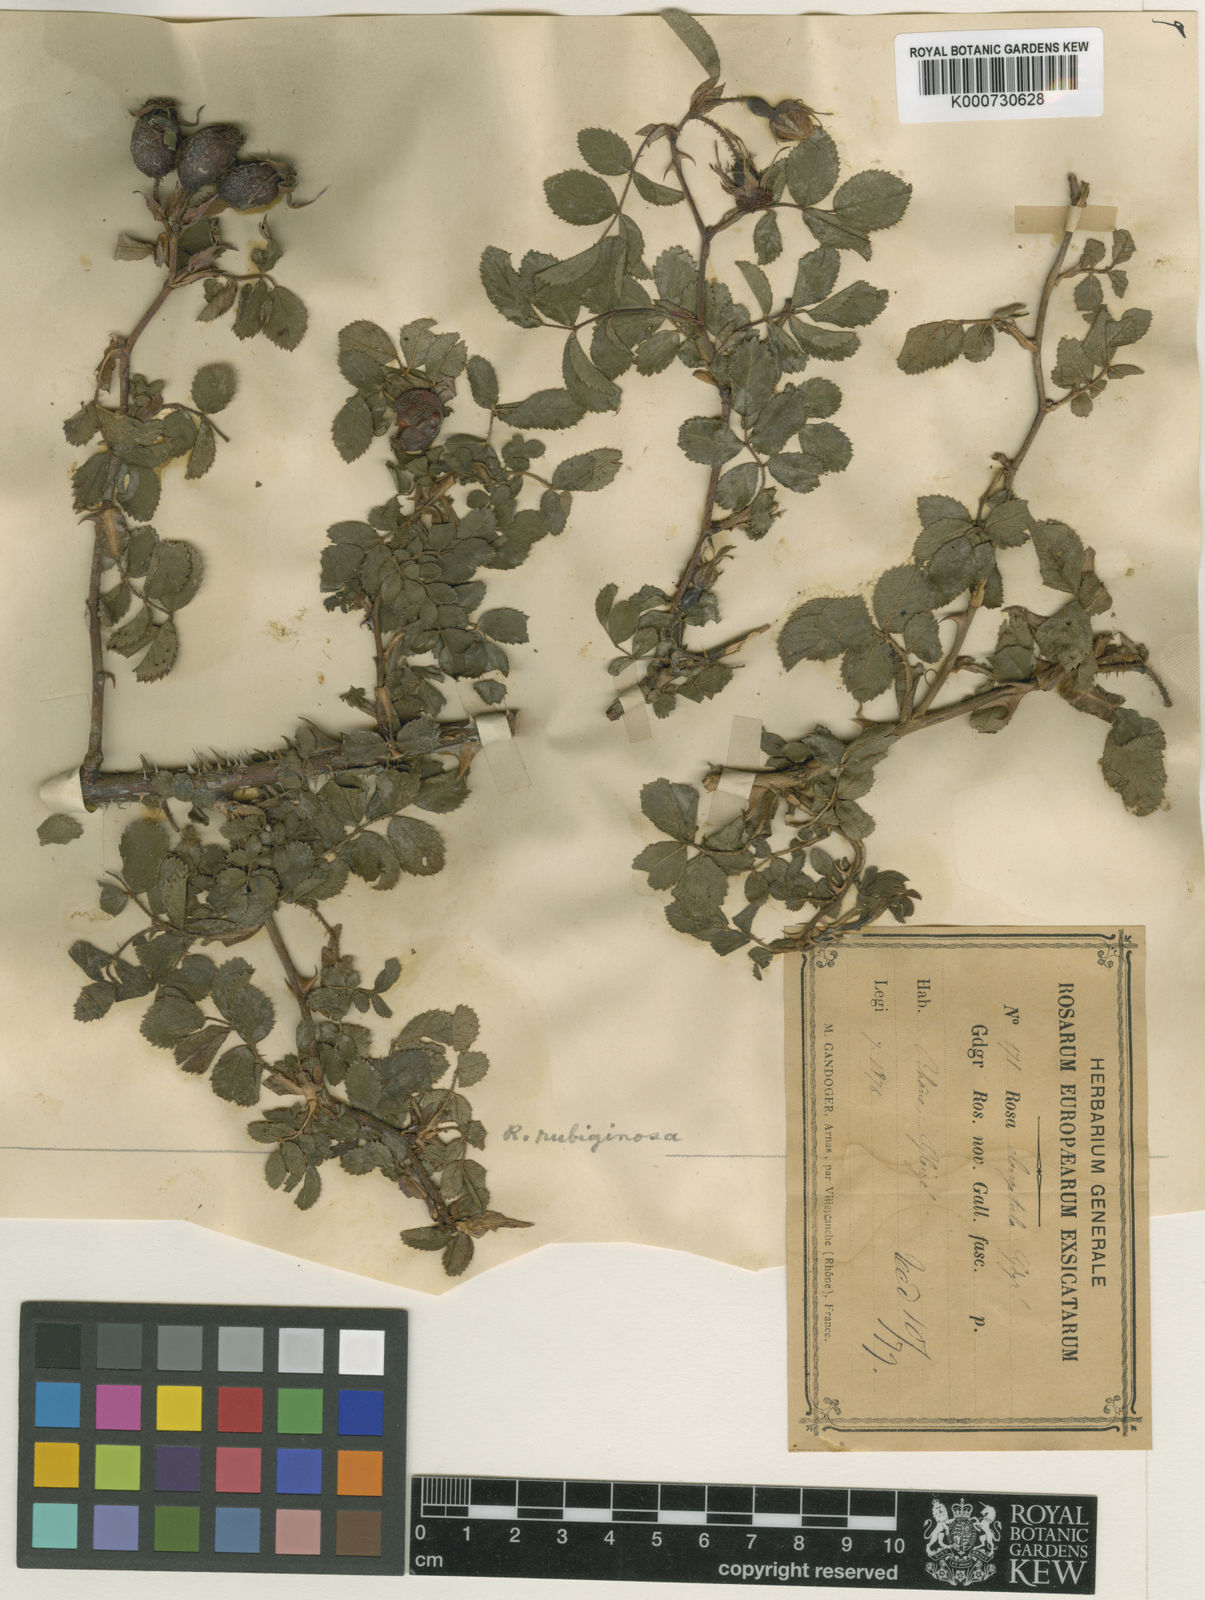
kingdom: Plantae
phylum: Tracheophyta
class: Magnoliopsida
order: Rosales
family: Rosaceae
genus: Rosa
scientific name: Rosa rubiginosa
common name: Sweet-briar
